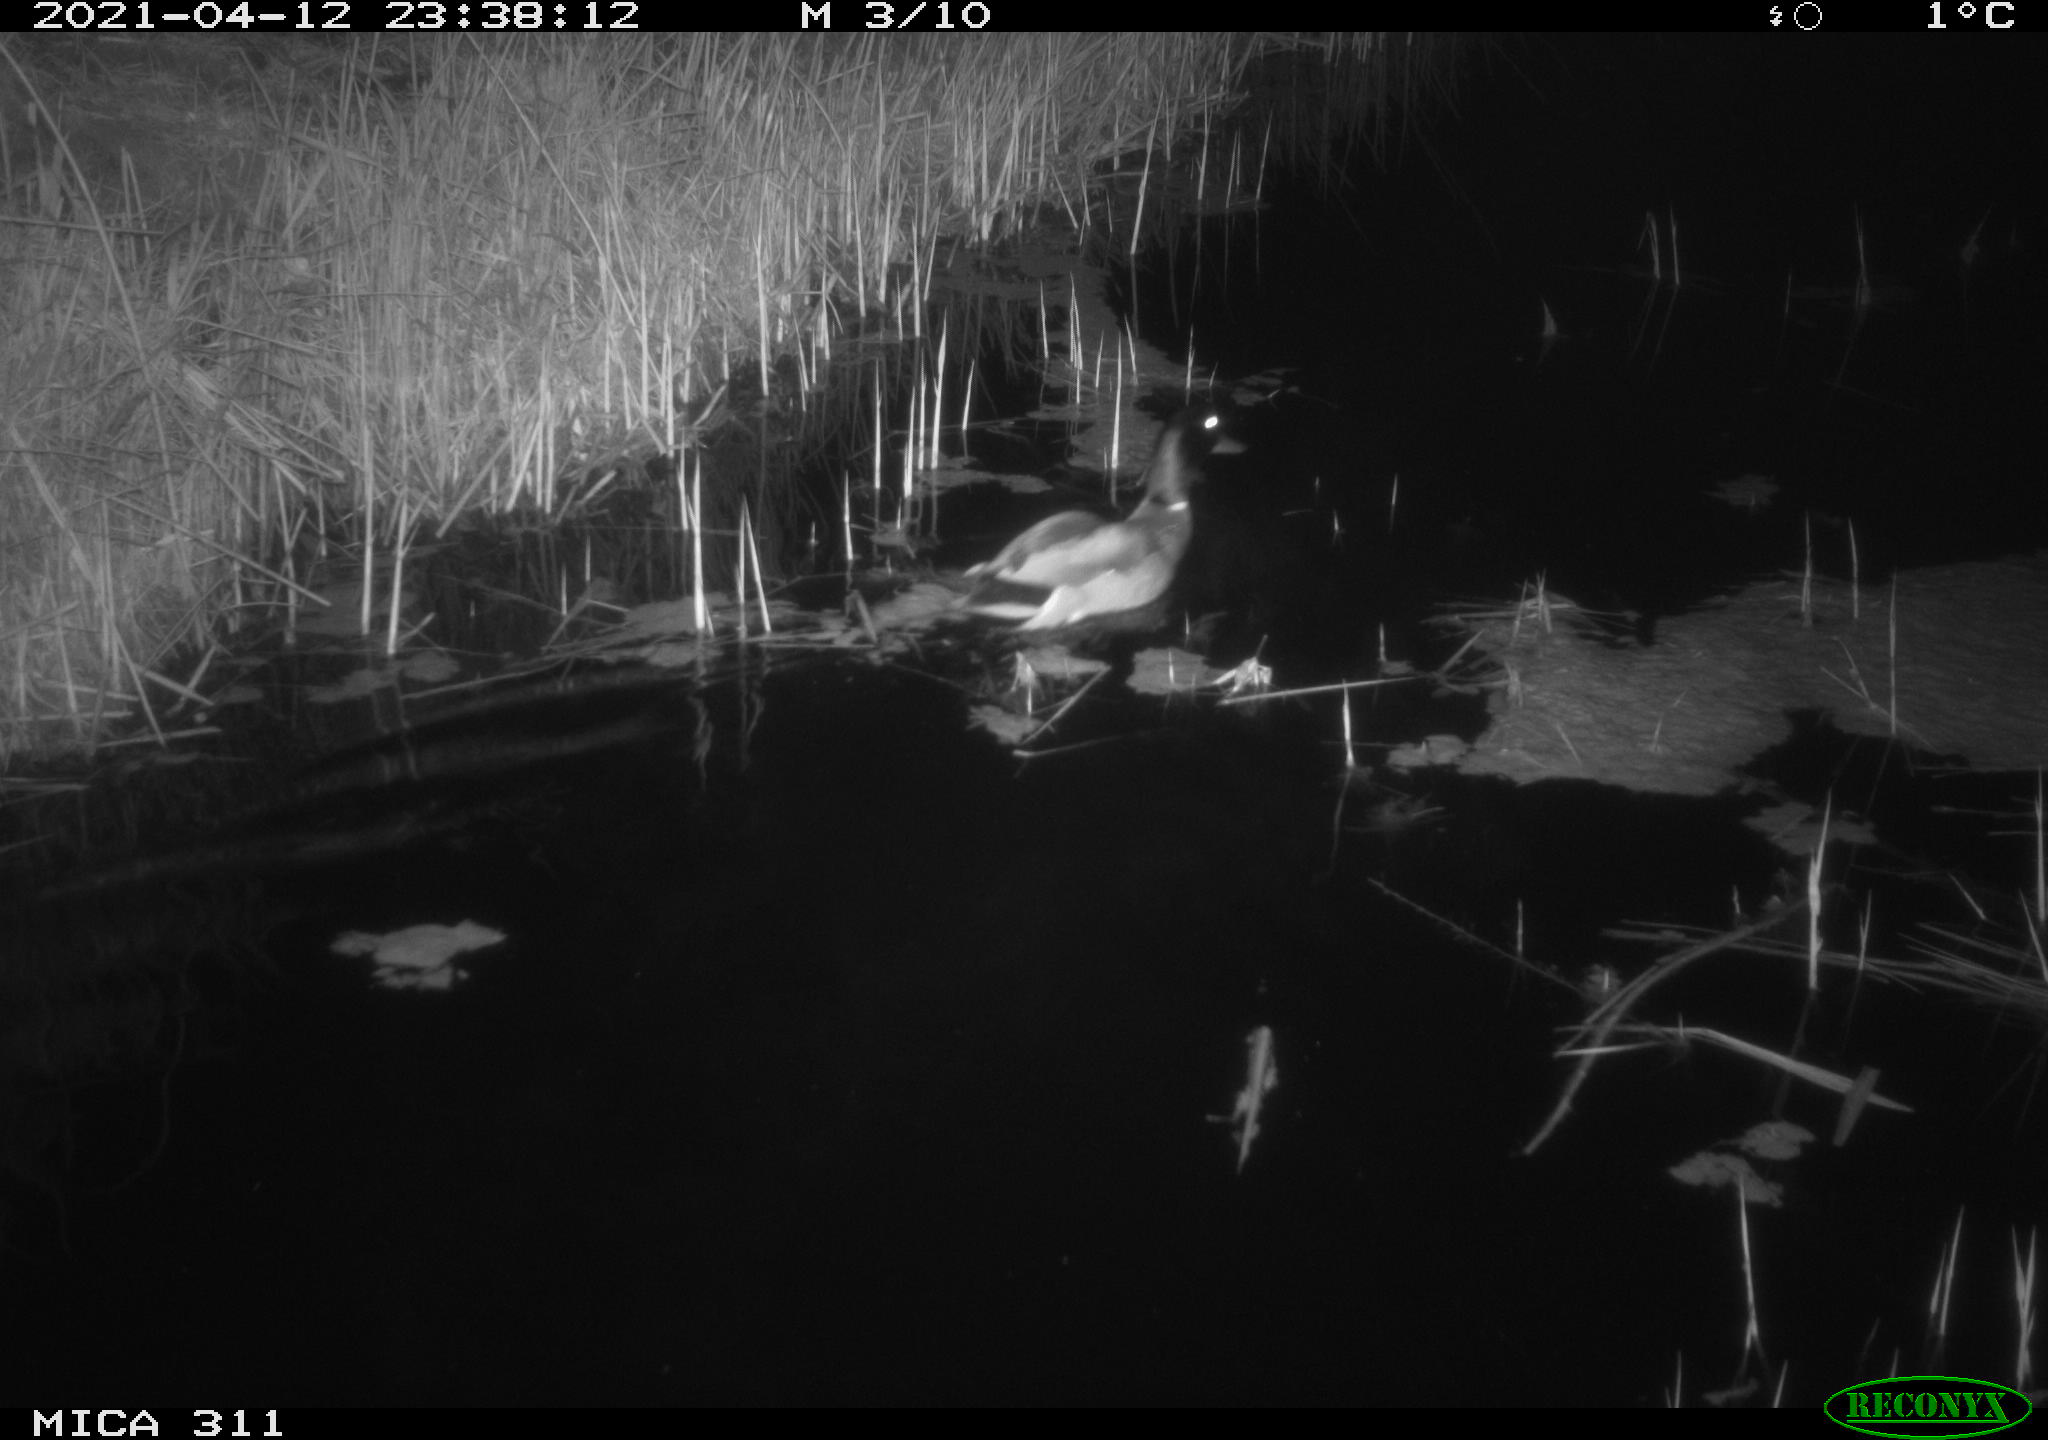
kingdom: Animalia
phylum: Chordata
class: Aves
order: Anseriformes
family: Anatidae
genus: Anas
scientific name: Anas platyrhynchos
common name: Mallard
